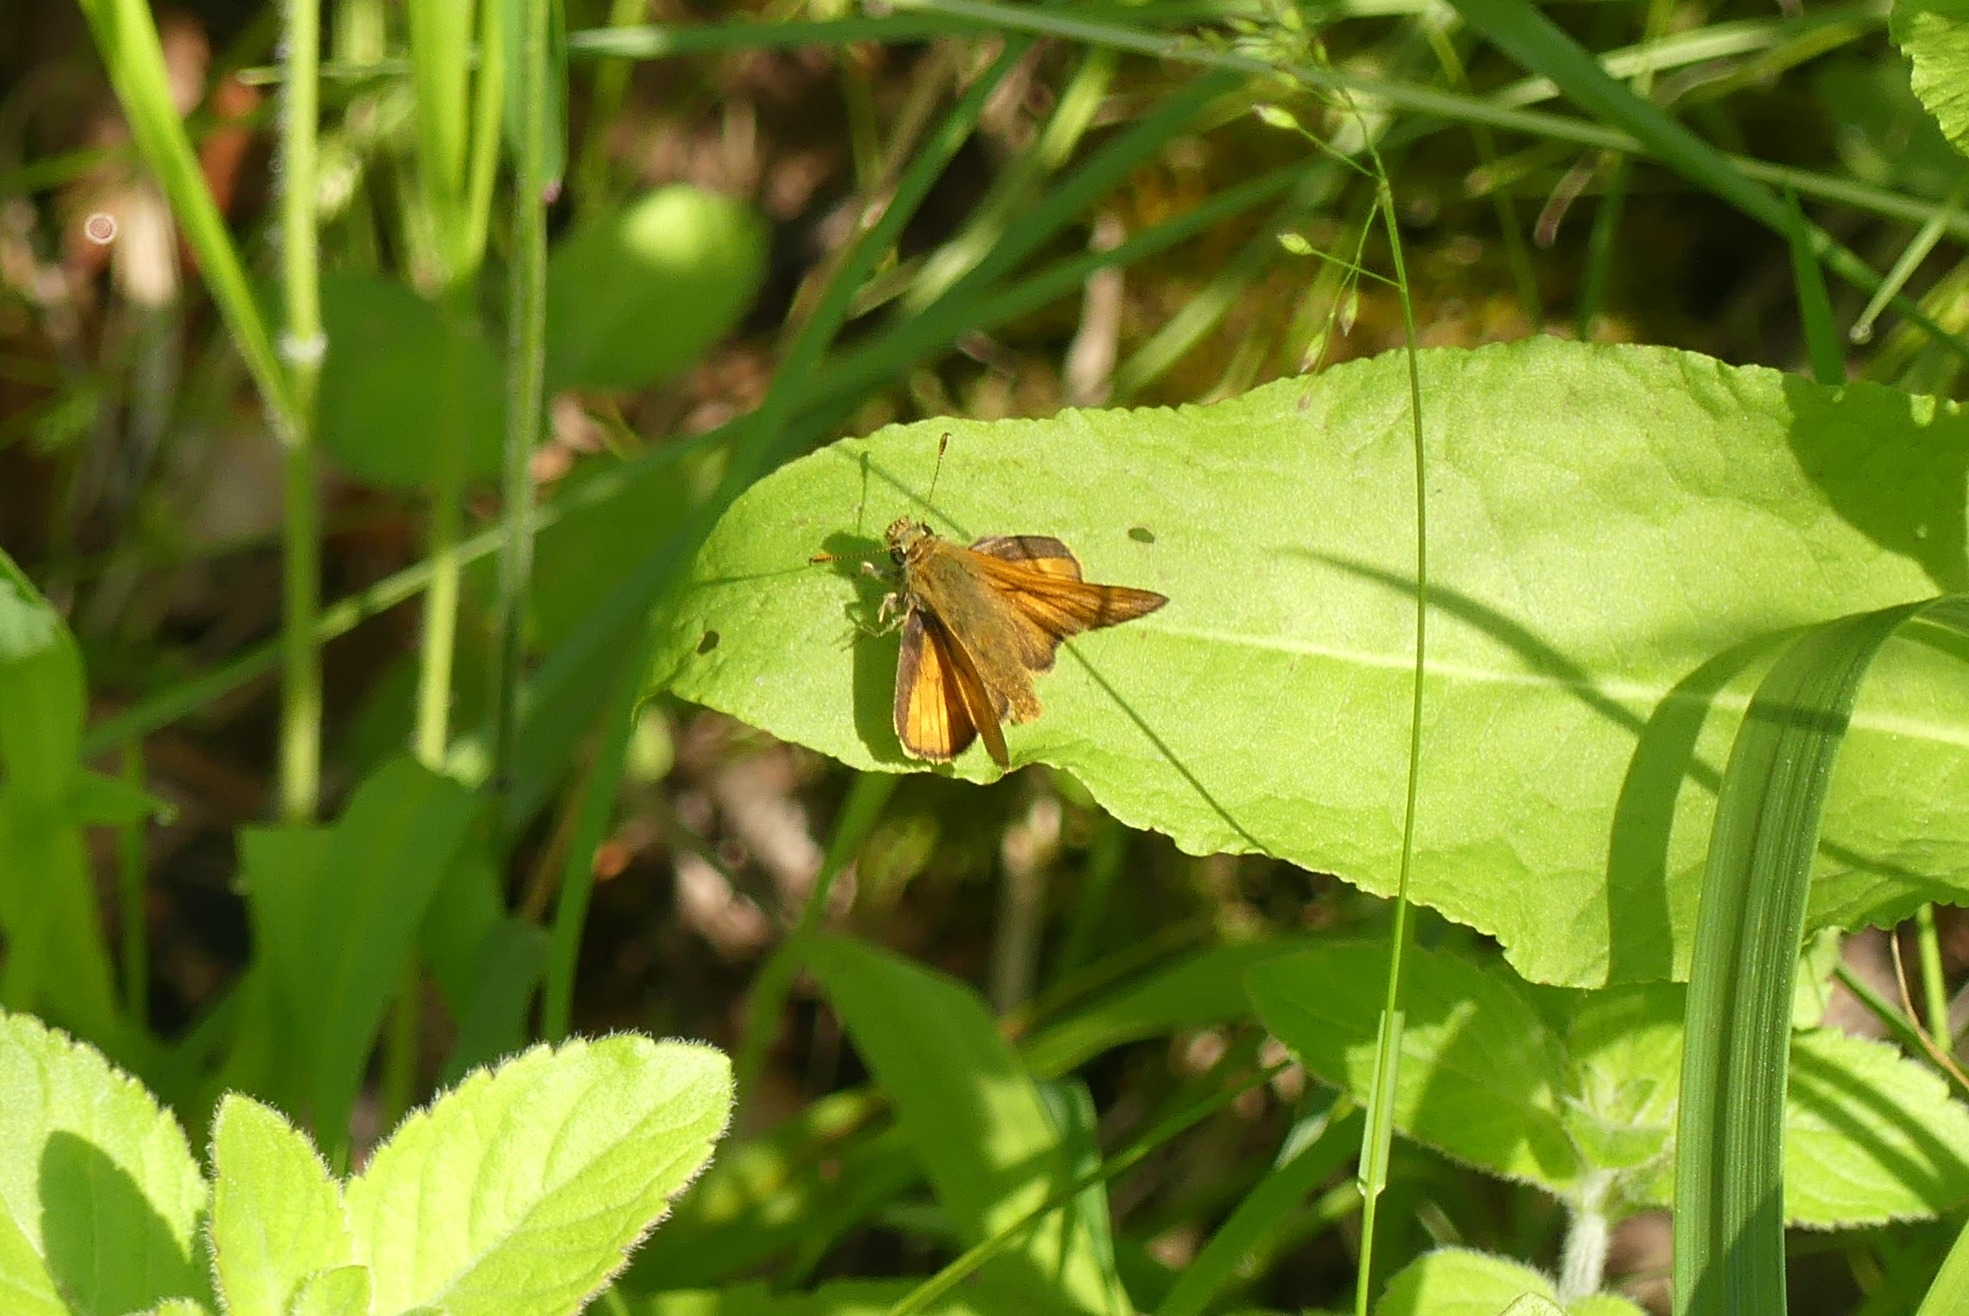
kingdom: Animalia
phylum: Arthropoda
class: Insecta
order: Lepidoptera
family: Hesperiidae
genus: Ochlodes
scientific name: Ochlodes venata
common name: Stor bredpande
